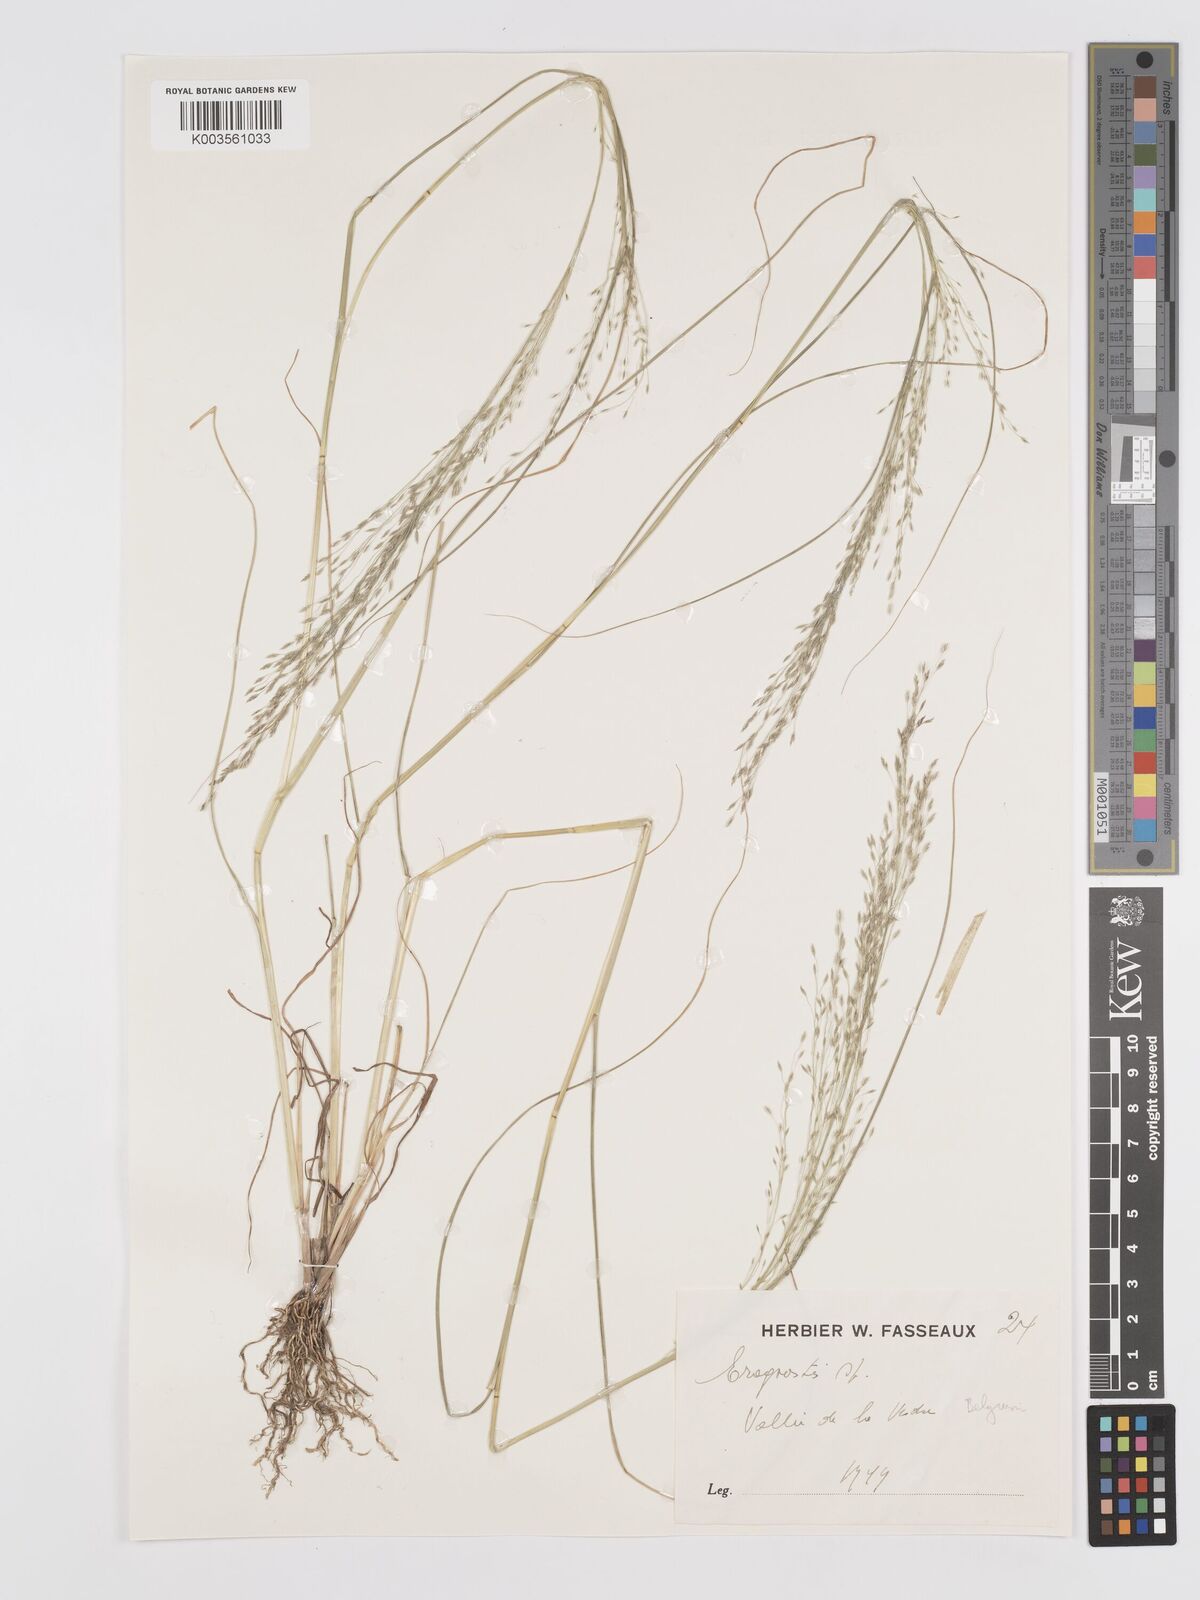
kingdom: Plantae
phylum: Tracheophyta
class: Liliopsida
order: Poales
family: Poaceae
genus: Eragrostis
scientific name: Eragrostis
